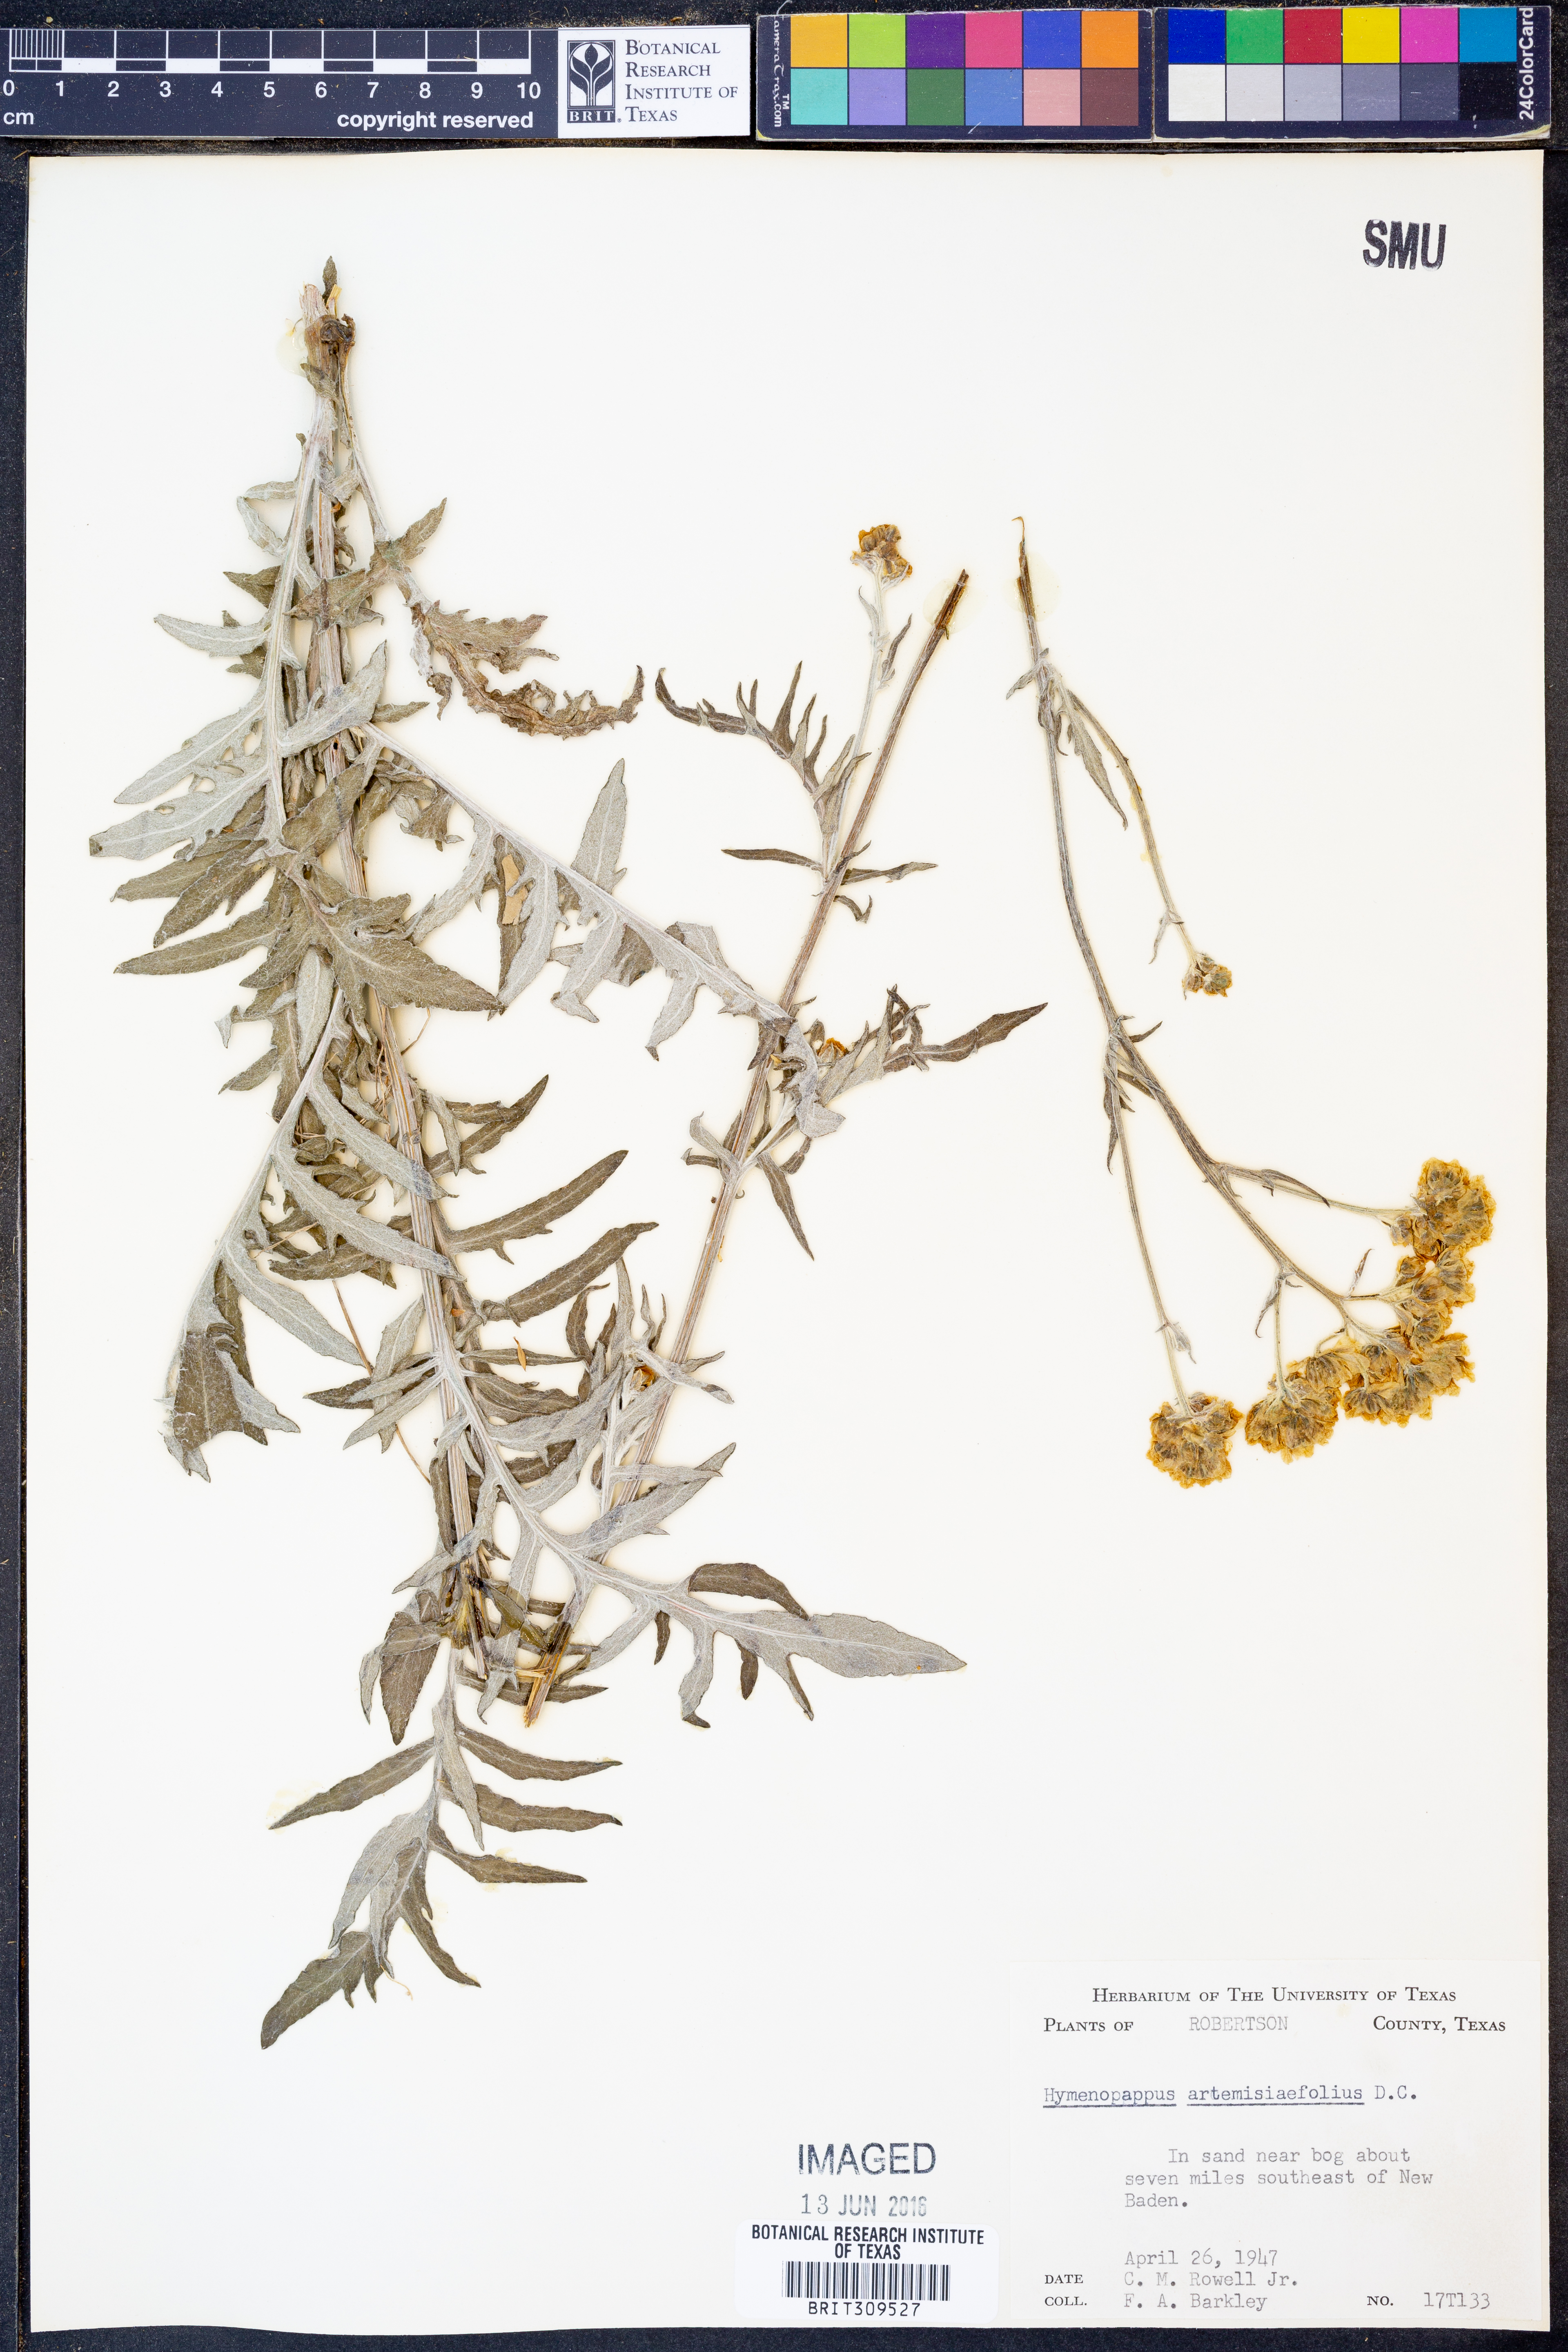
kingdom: Plantae
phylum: Tracheophyta
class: Magnoliopsida
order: Asterales
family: Asteraceae
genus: Hymenopappus
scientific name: Hymenopappus artemisiifolius
